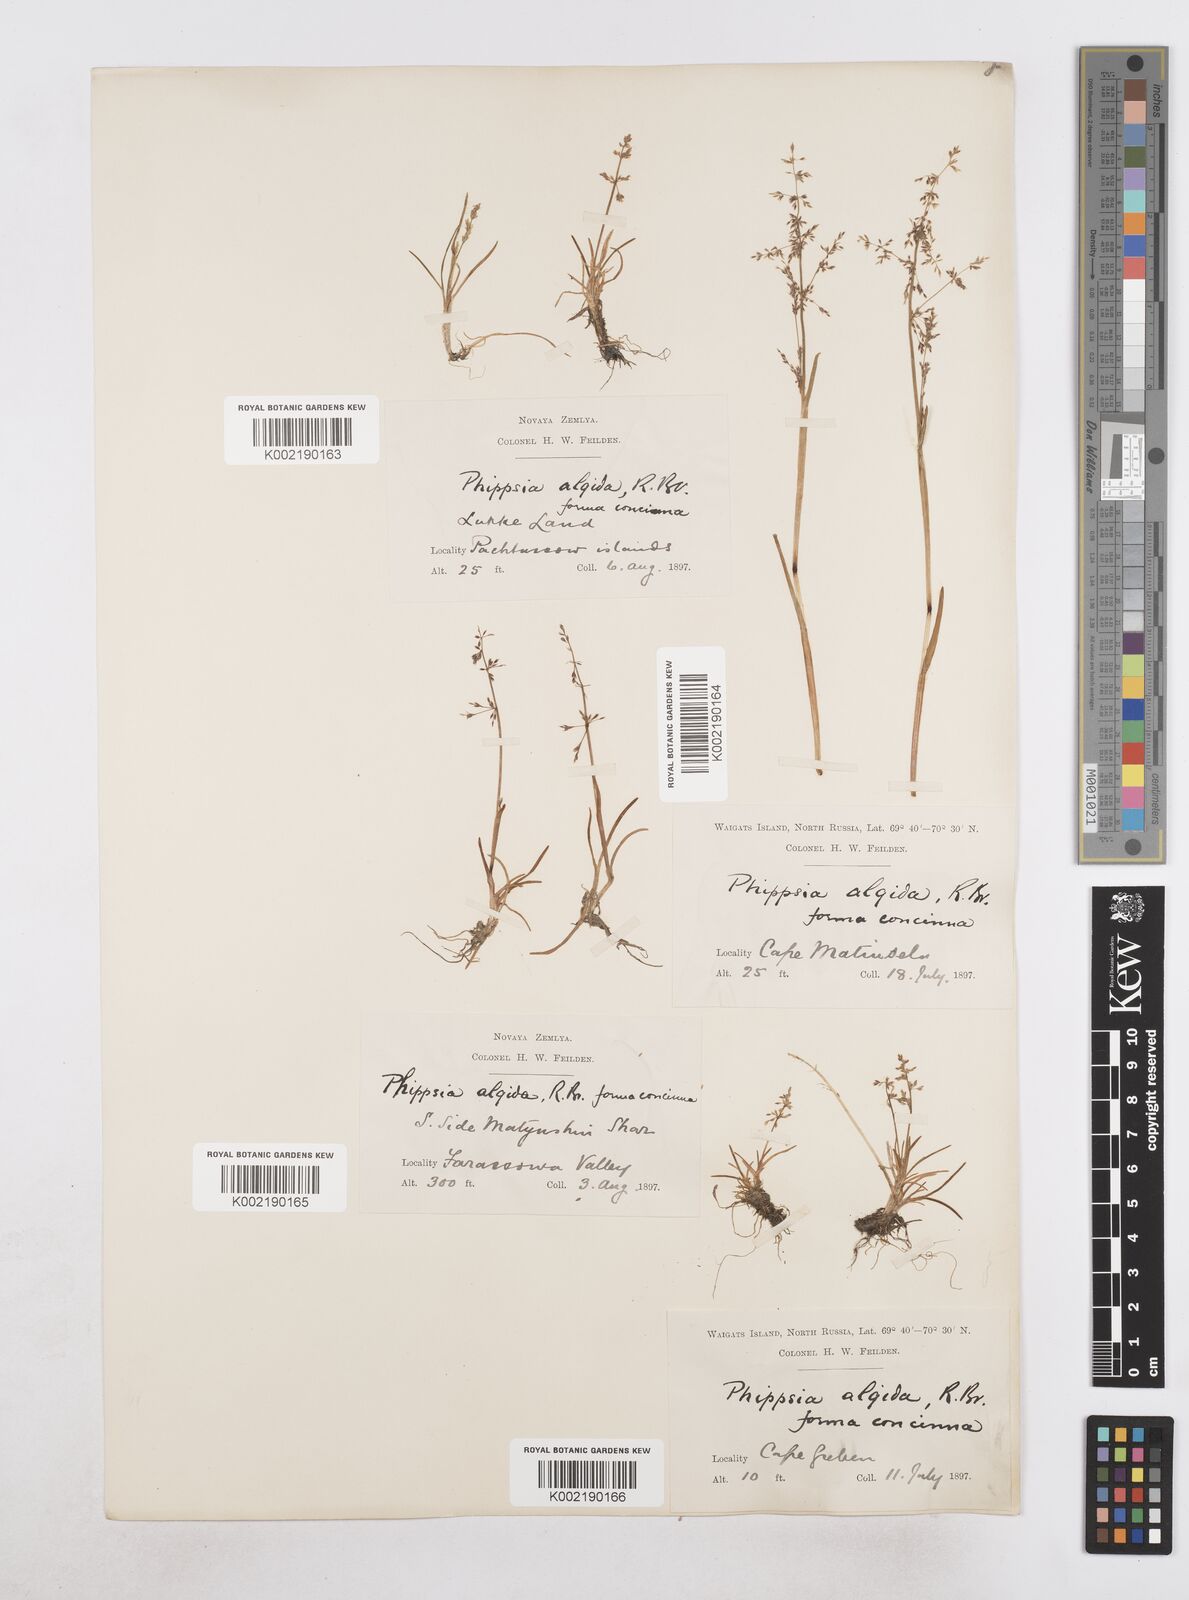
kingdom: Plantae
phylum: Tracheophyta
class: Liliopsida
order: Poales
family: Poaceae
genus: Phippsia
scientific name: Phippsia concinna
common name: Snowgrass
